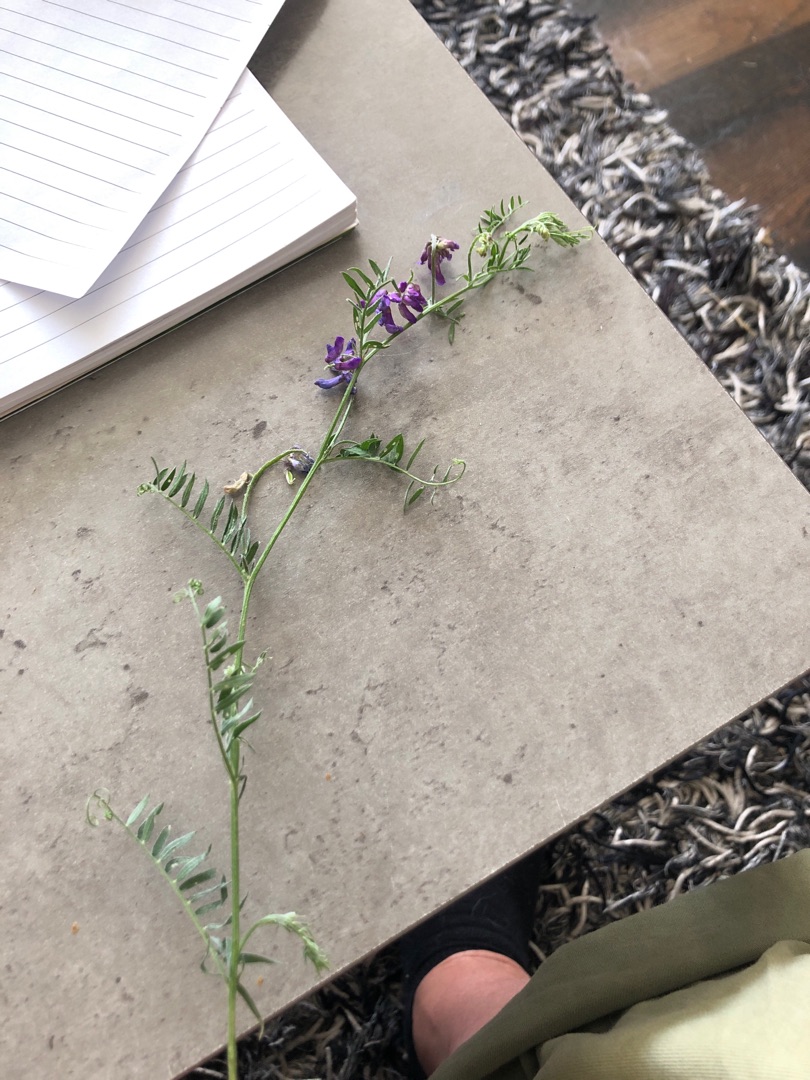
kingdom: Plantae
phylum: Tracheophyta
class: Magnoliopsida
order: Fabales
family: Fabaceae
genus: Vicia
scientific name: Vicia cracca
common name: Muse-vikke
